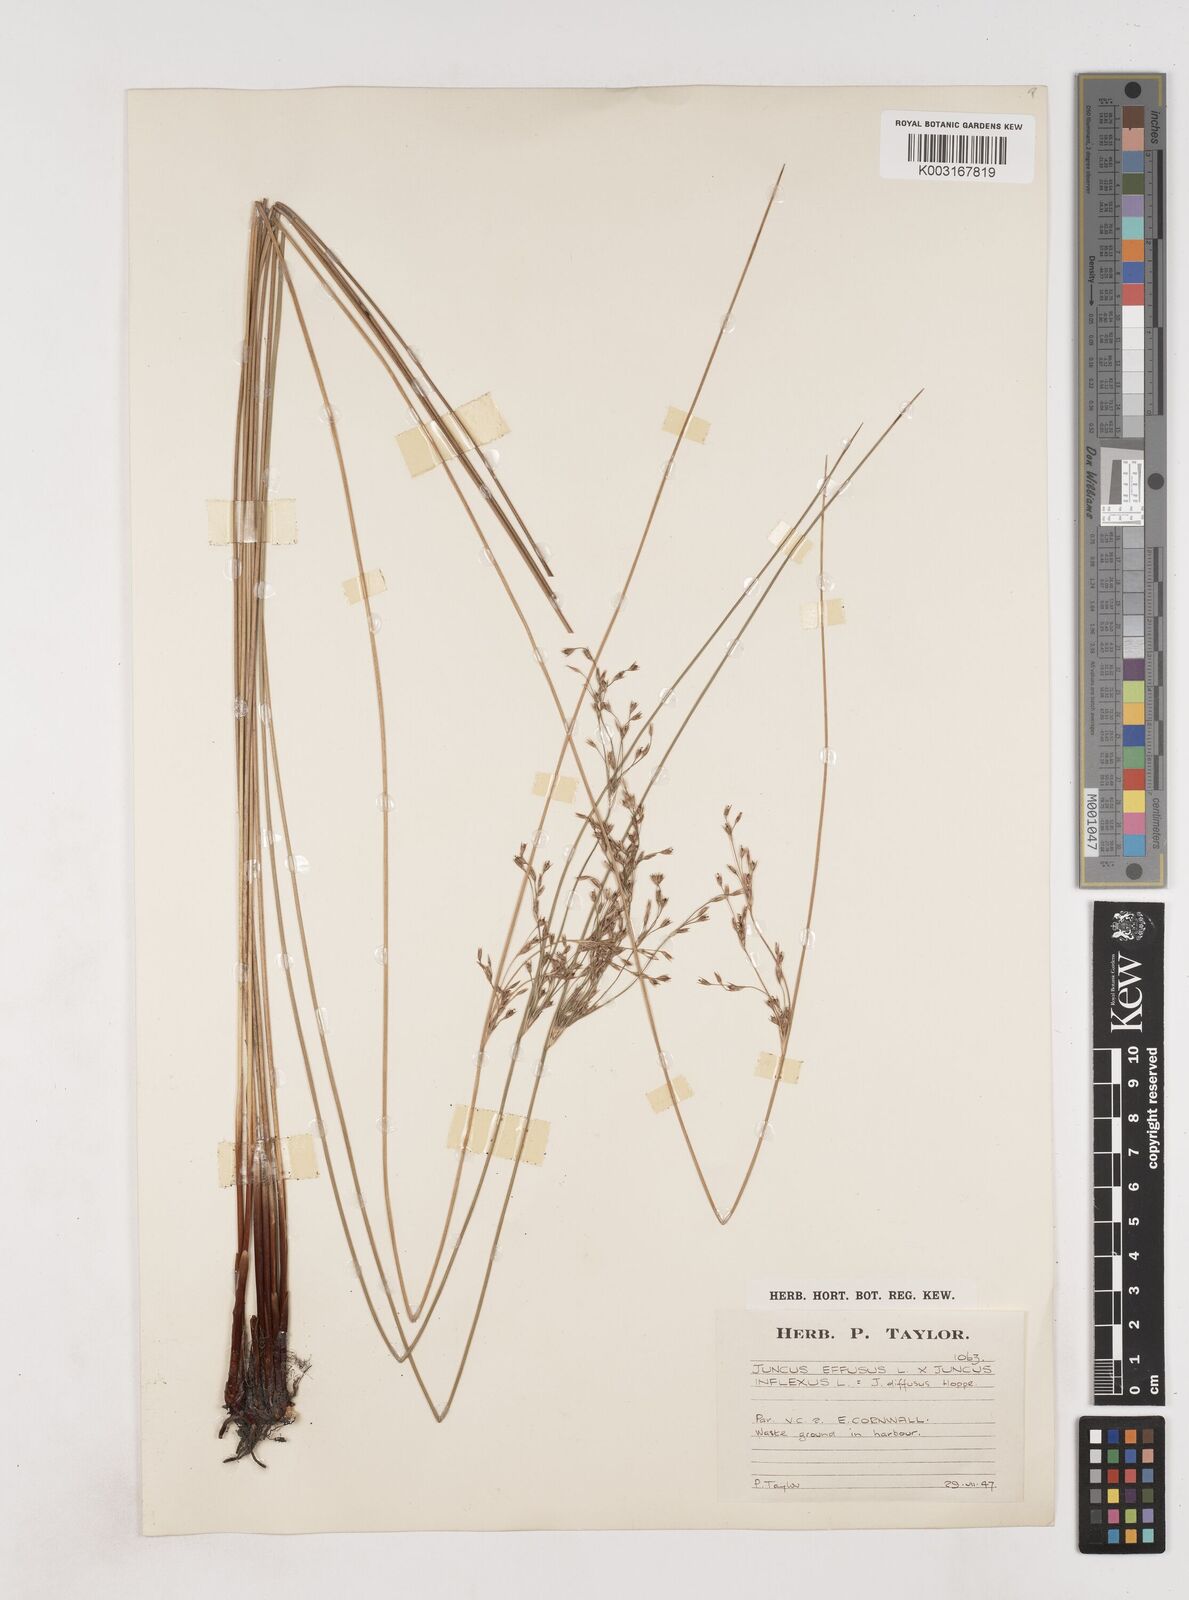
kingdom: Plantae
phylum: Tracheophyta
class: Liliopsida
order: Poales
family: Juncaceae
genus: Juncus
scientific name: Juncus effusus
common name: Soft rush
